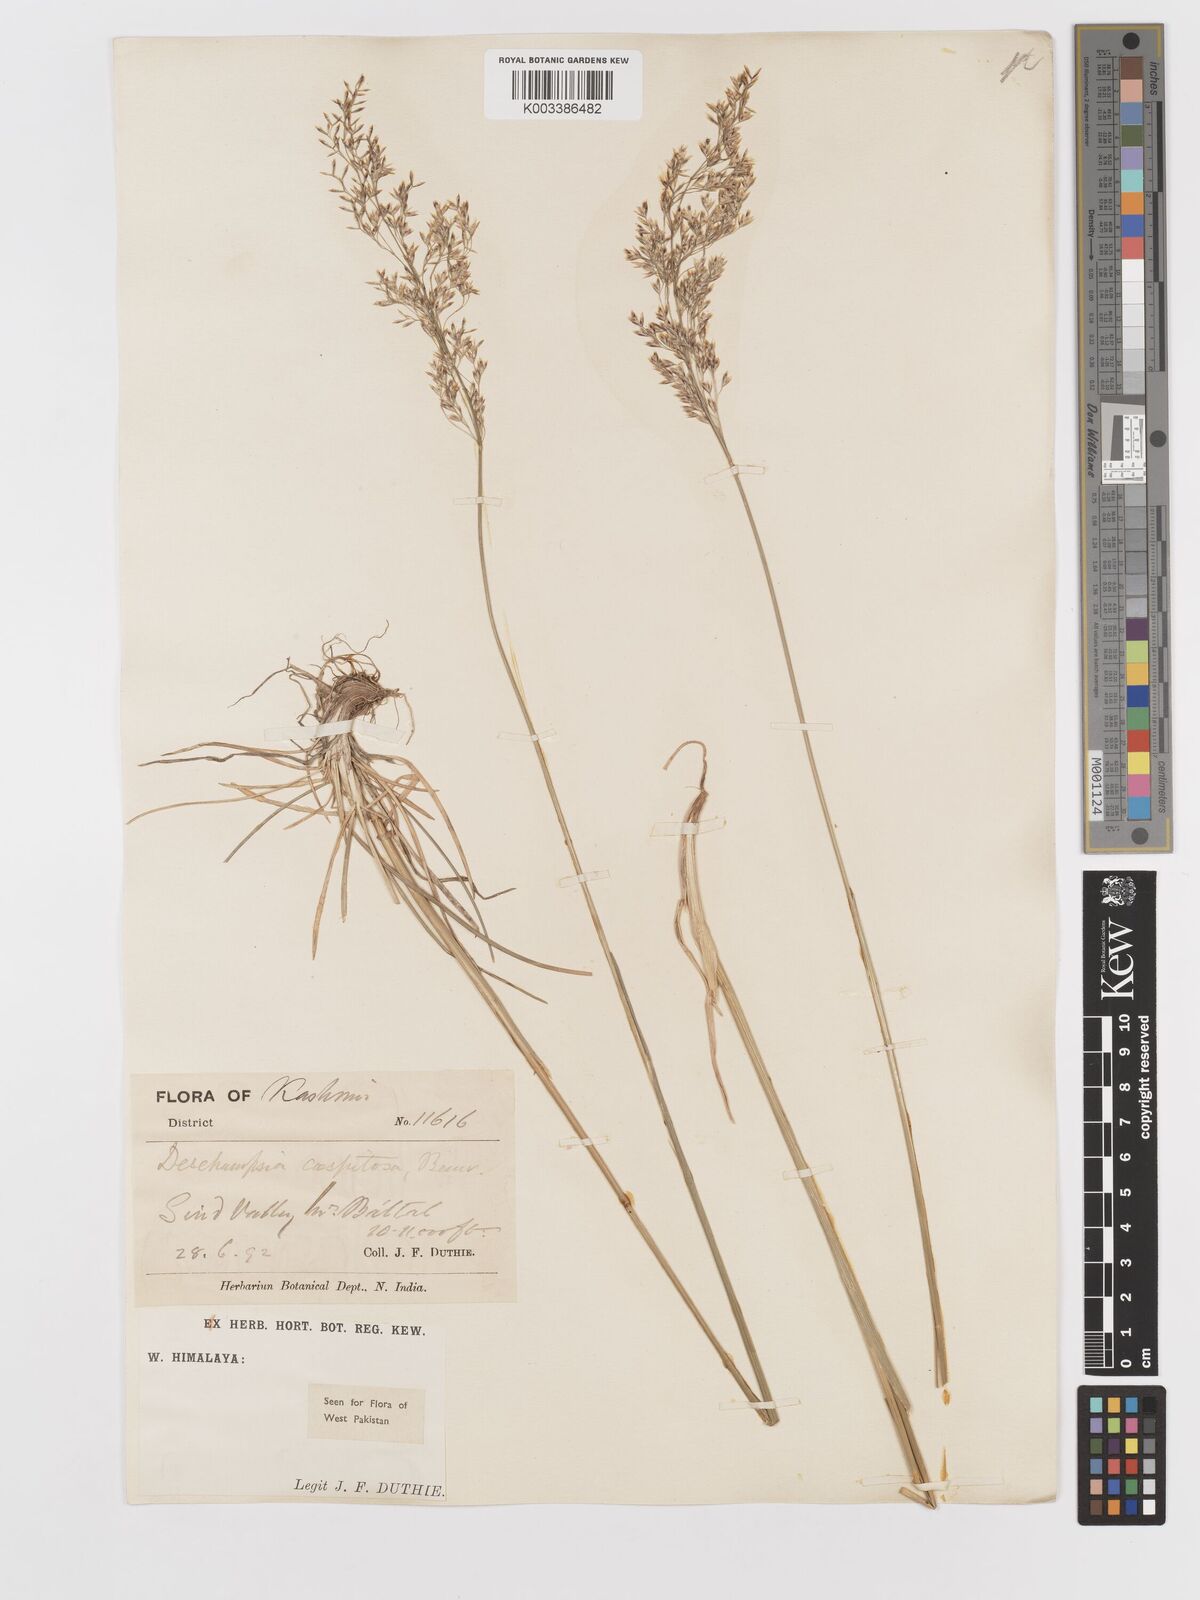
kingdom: Plantae
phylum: Tracheophyta
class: Liliopsida
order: Poales
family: Poaceae
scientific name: Poaceae
